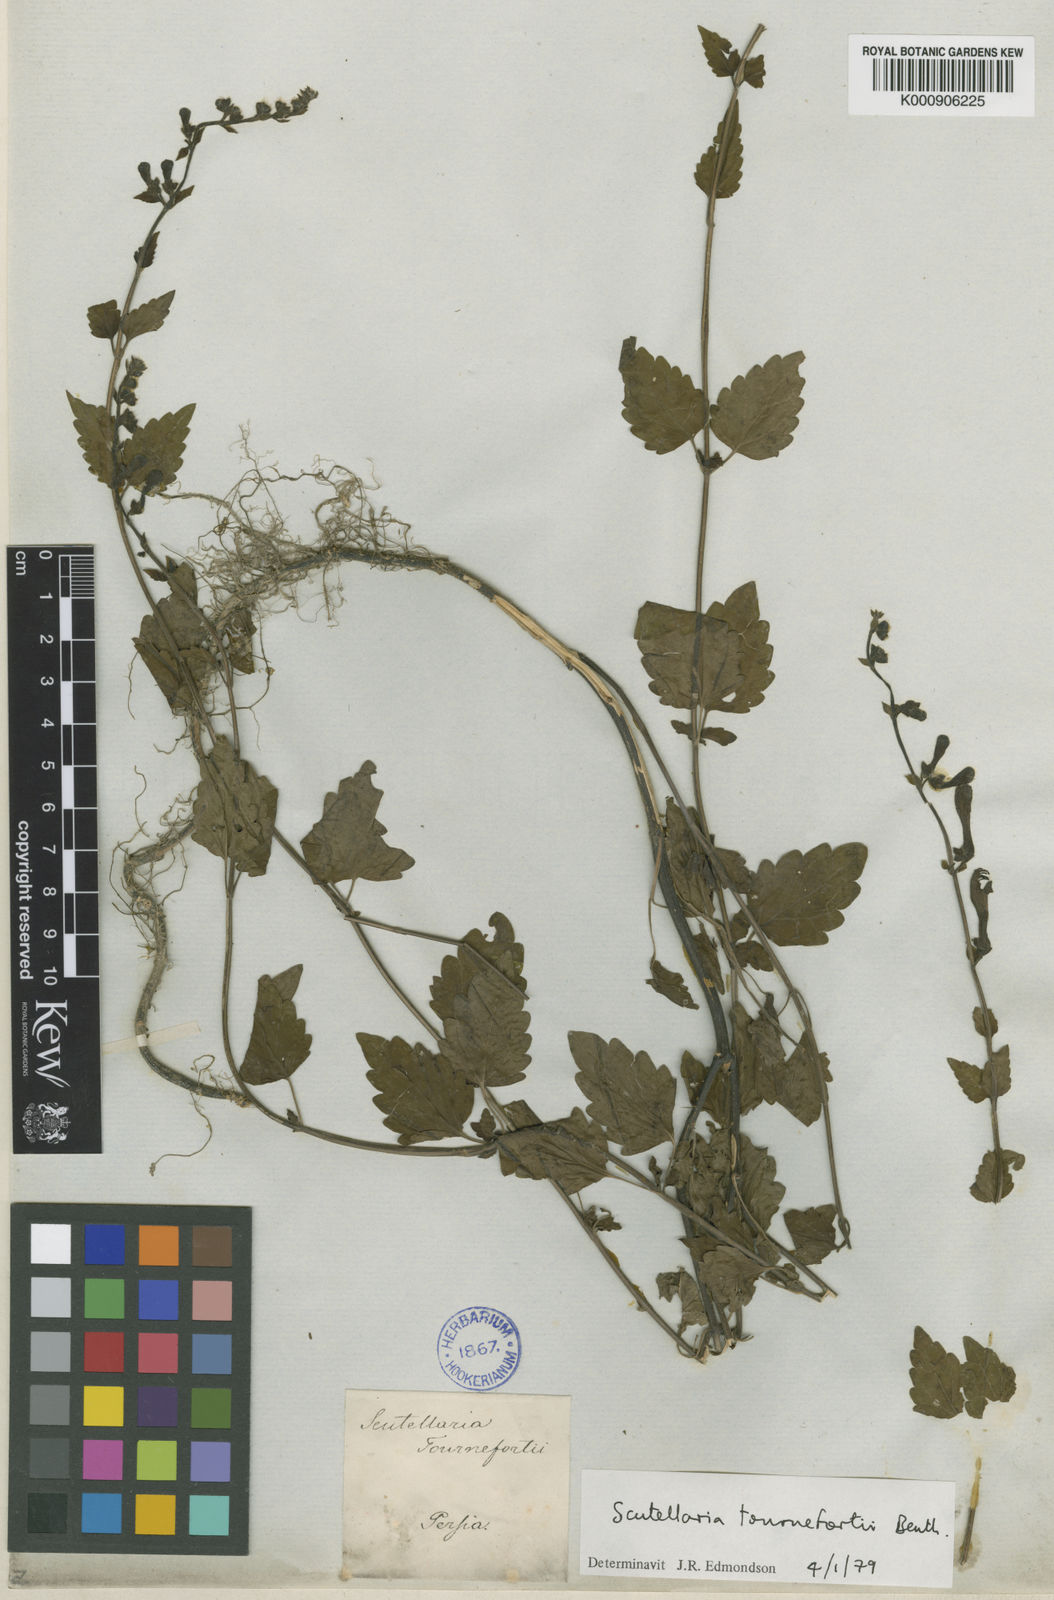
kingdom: Plantae
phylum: Tracheophyta
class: Magnoliopsida
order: Lamiales
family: Lamiaceae
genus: Scutellaria
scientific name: Scutellaria tournefortii
